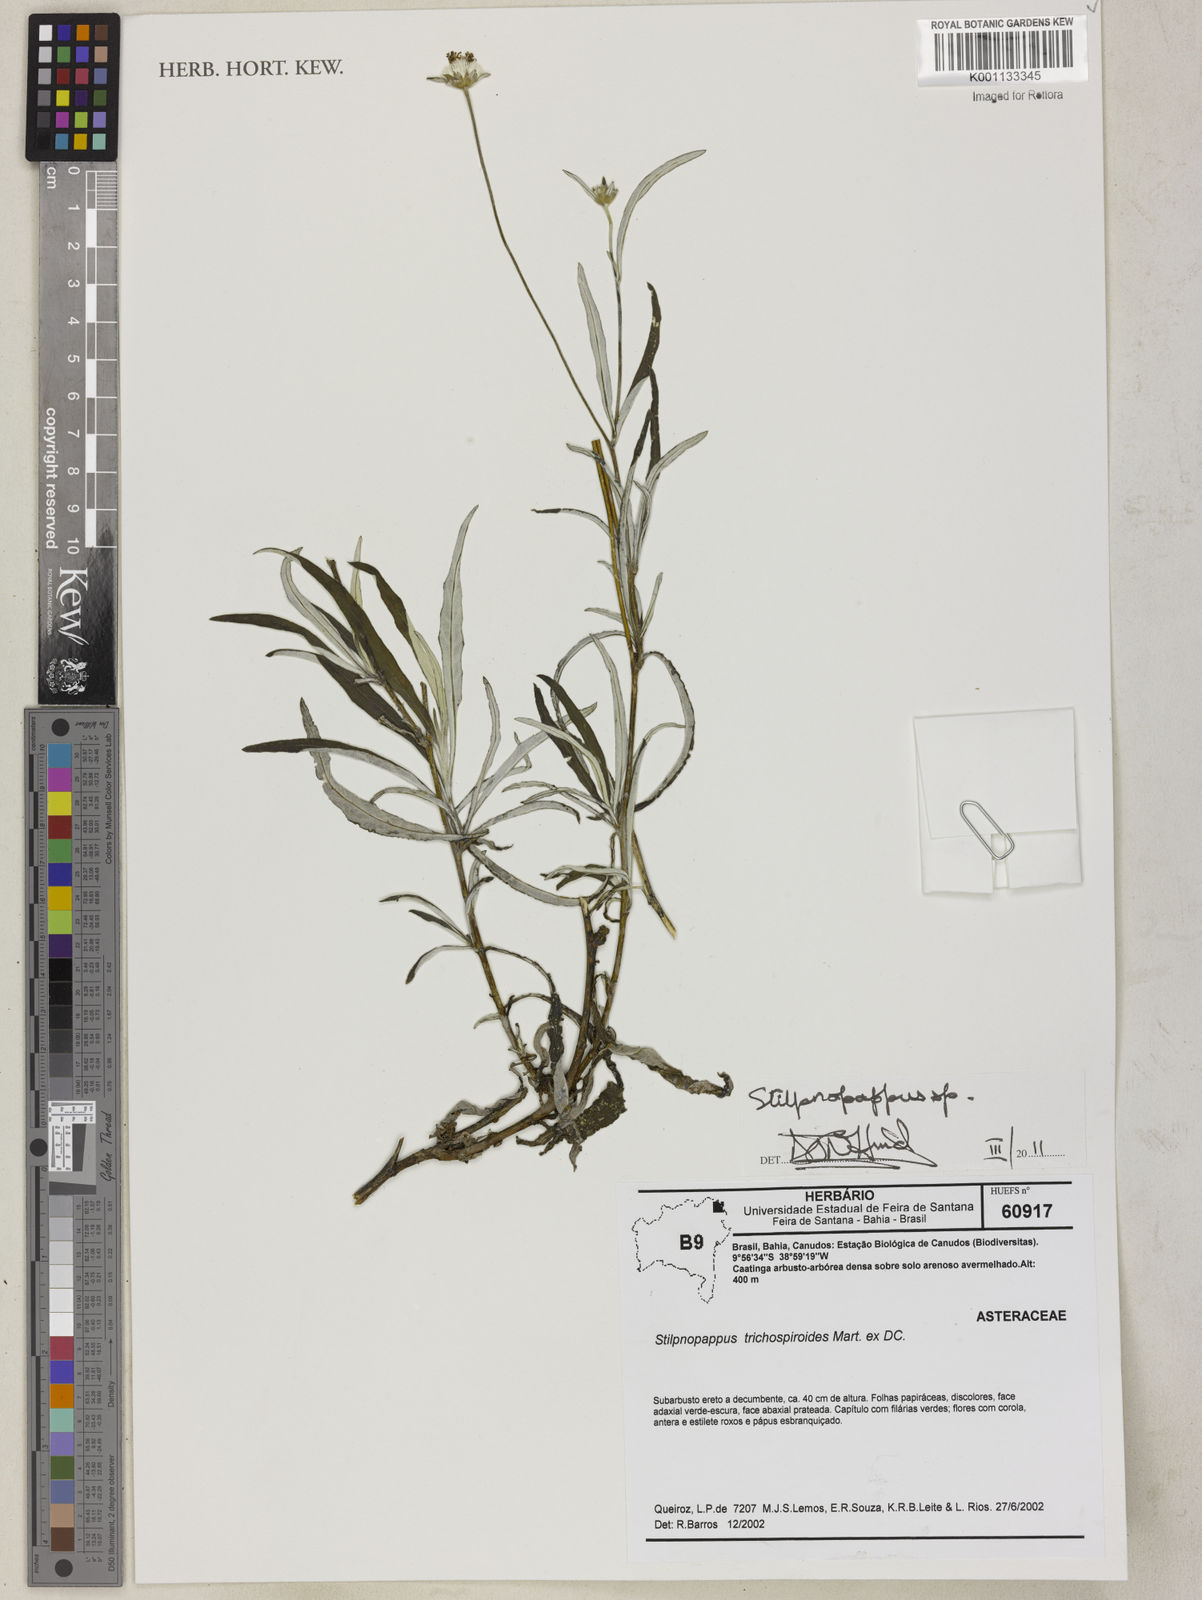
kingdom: Plantae
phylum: Tracheophyta
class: Magnoliopsida
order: Asterales
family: Asteraceae
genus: Stilpnopappus
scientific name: Stilpnopappus
